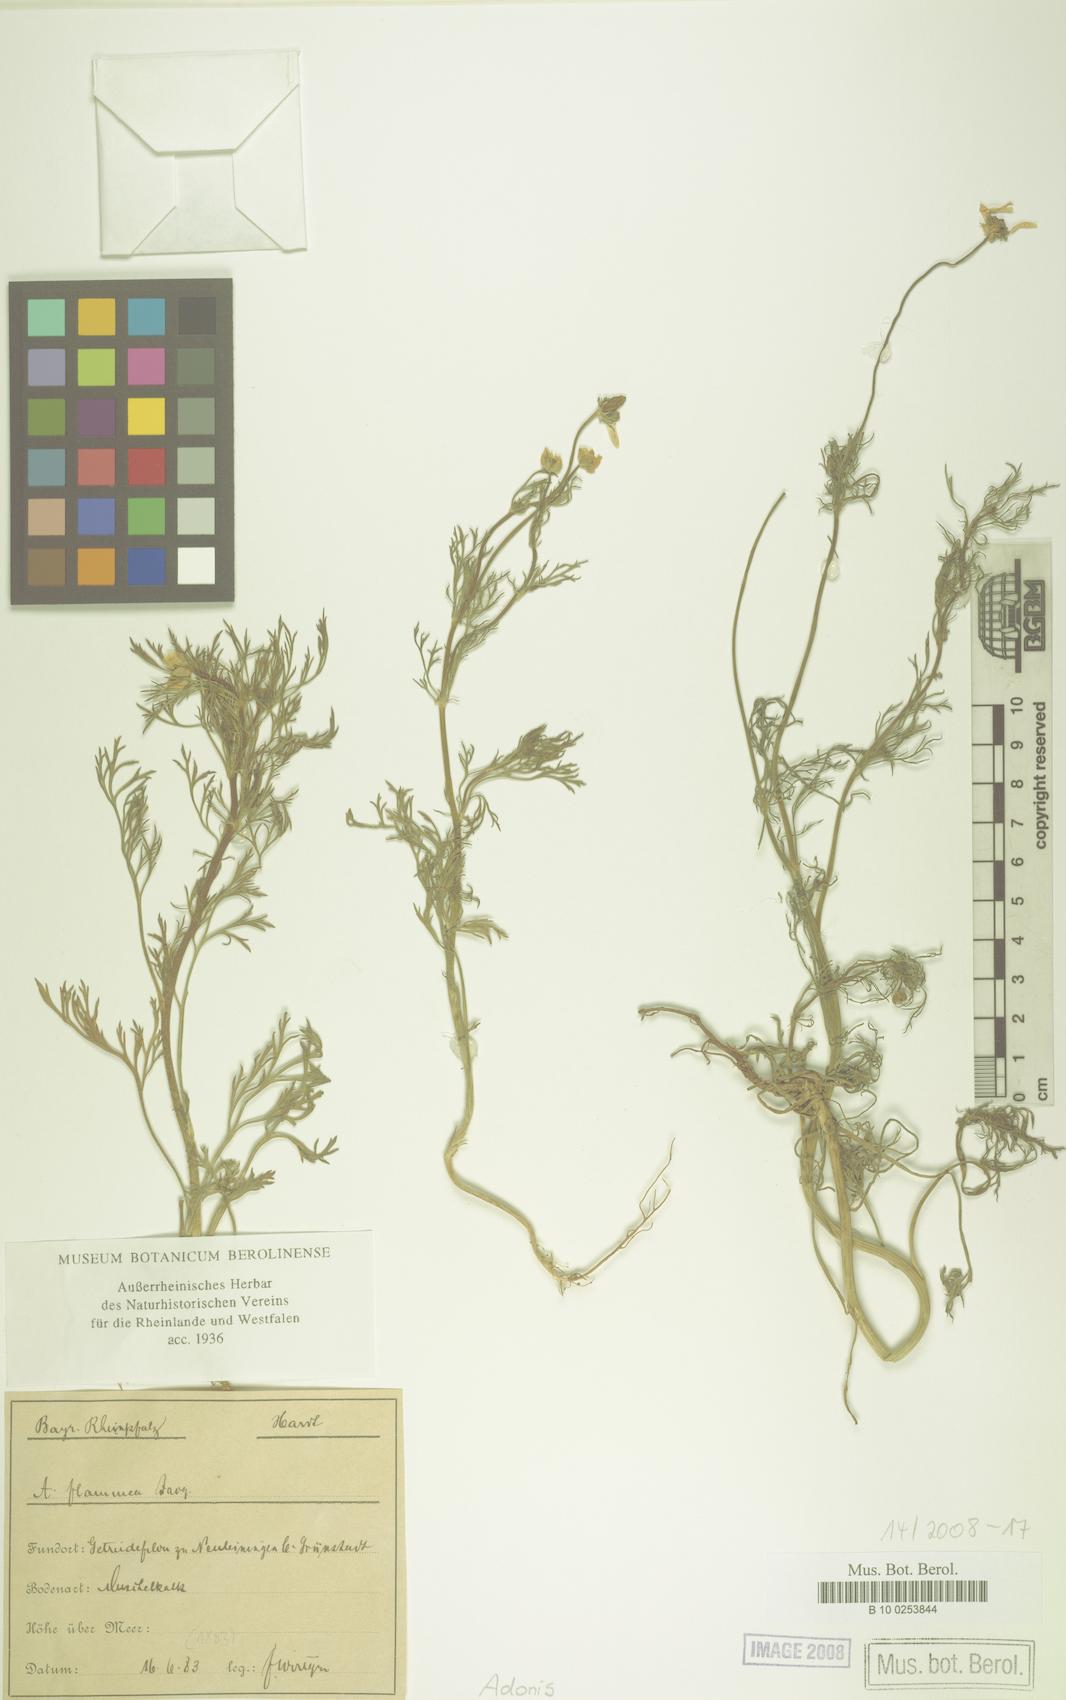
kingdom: Plantae
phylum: Tracheophyta
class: Magnoliopsida
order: Ranunculales
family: Ranunculaceae
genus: Adonis
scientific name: Adonis
